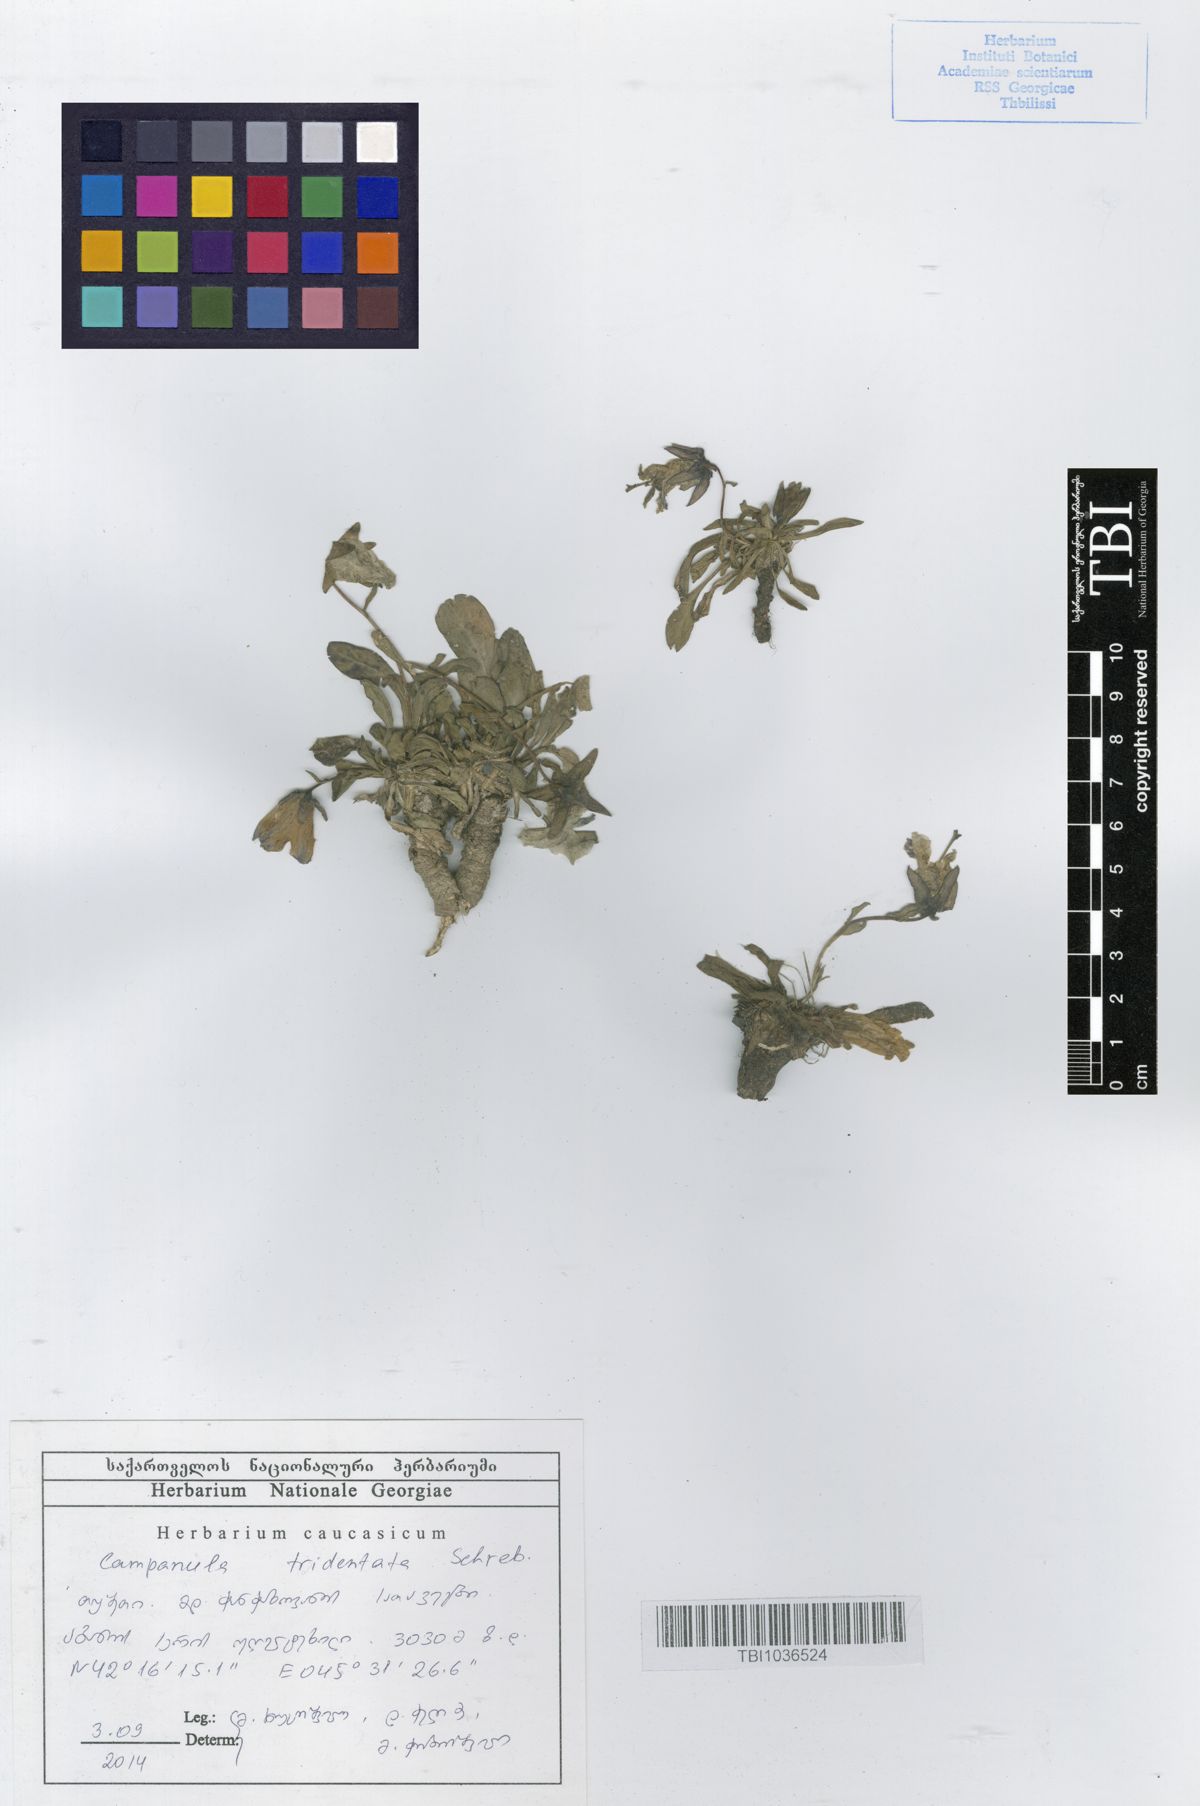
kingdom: Plantae
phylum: Tracheophyta
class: Magnoliopsida
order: Asterales
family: Campanulaceae
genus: Campanula
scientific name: Campanula tridentata
